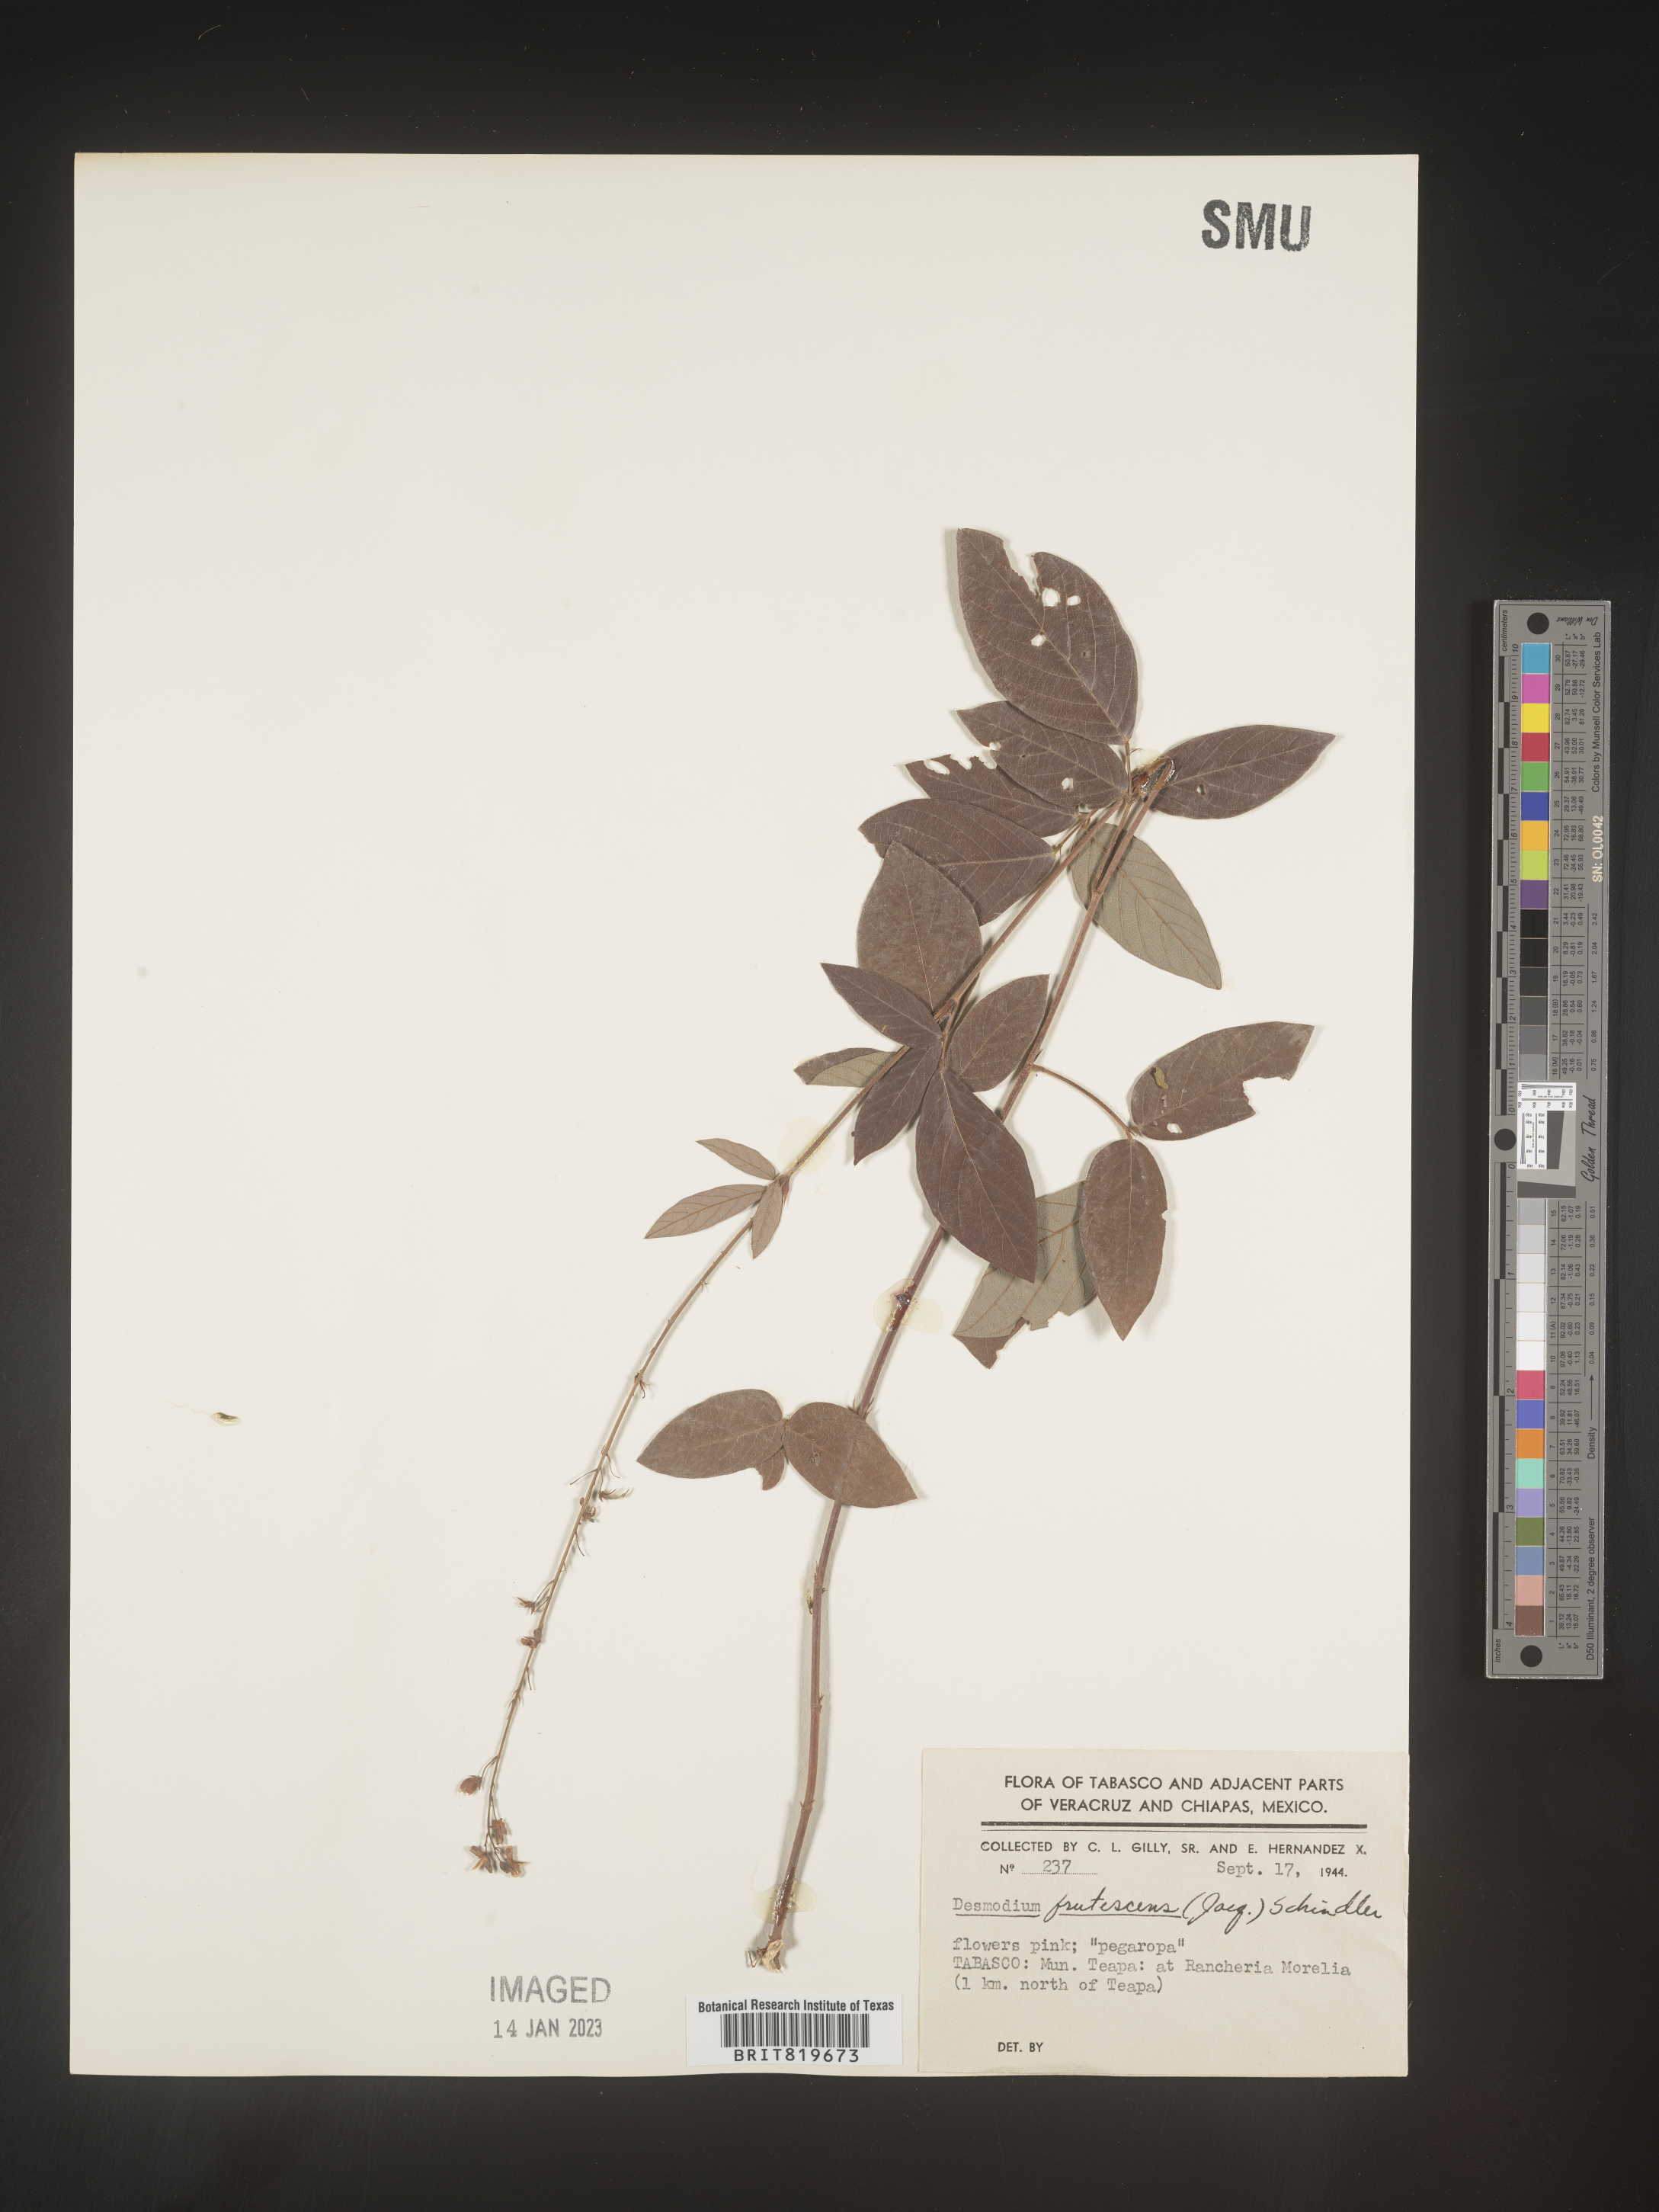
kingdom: Plantae
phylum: Tracheophyta
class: Magnoliopsida
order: Fabales
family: Fabaceae
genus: Desmodium
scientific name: Desmodium
